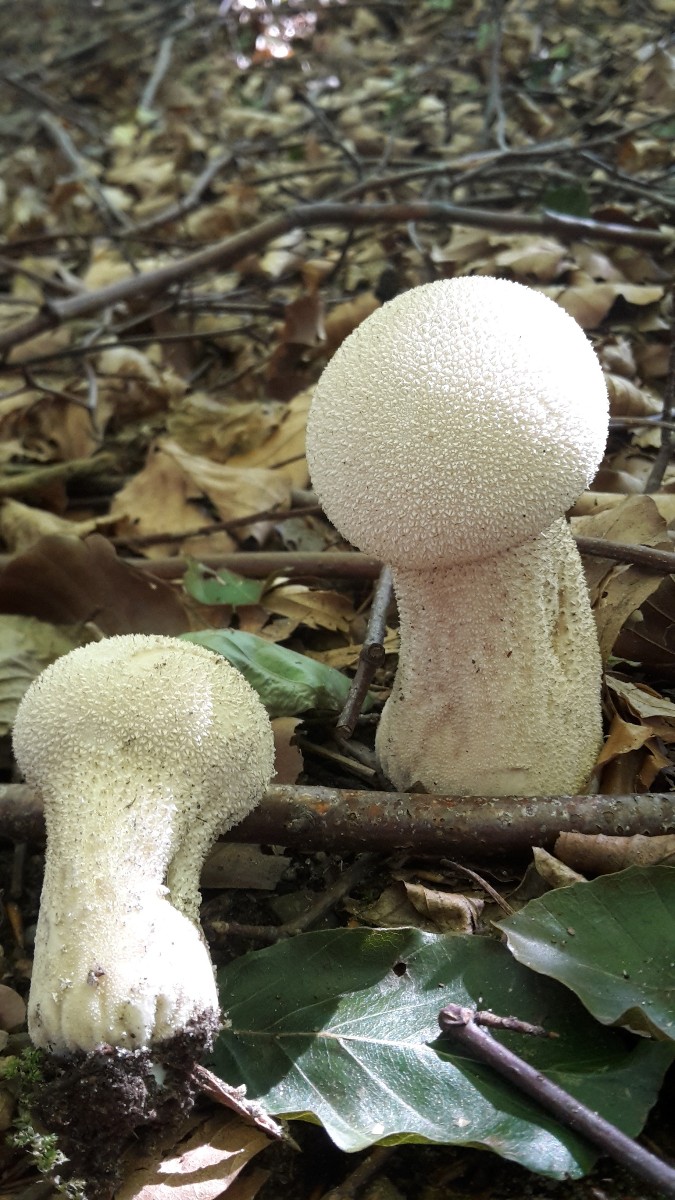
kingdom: Fungi
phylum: Basidiomycota
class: Agaricomycetes
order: Agaricales
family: Lycoperdaceae
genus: Lycoperdon
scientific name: Lycoperdon excipuliforme
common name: højstokket støvbold
